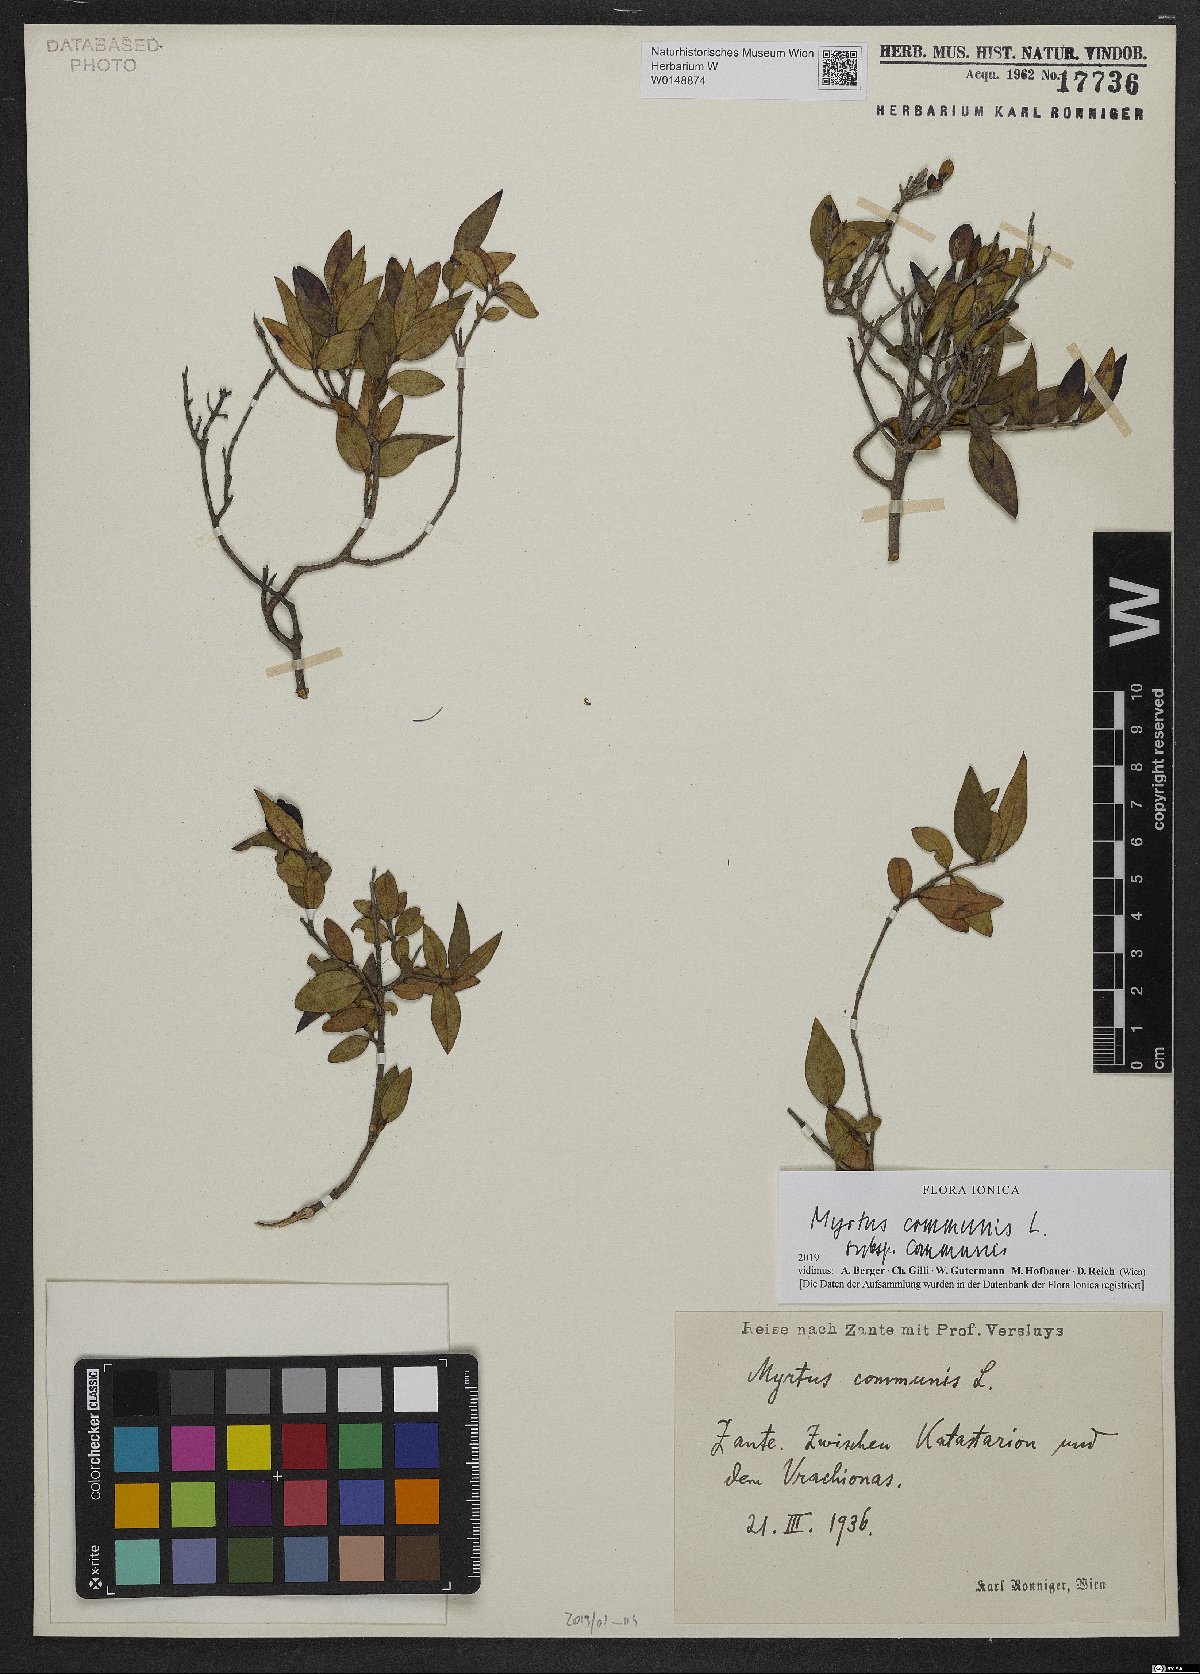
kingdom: Plantae
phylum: Tracheophyta
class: Magnoliopsida
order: Myrtales
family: Myrtaceae
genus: Myrtus
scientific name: Myrtus communis
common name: Myrtle
